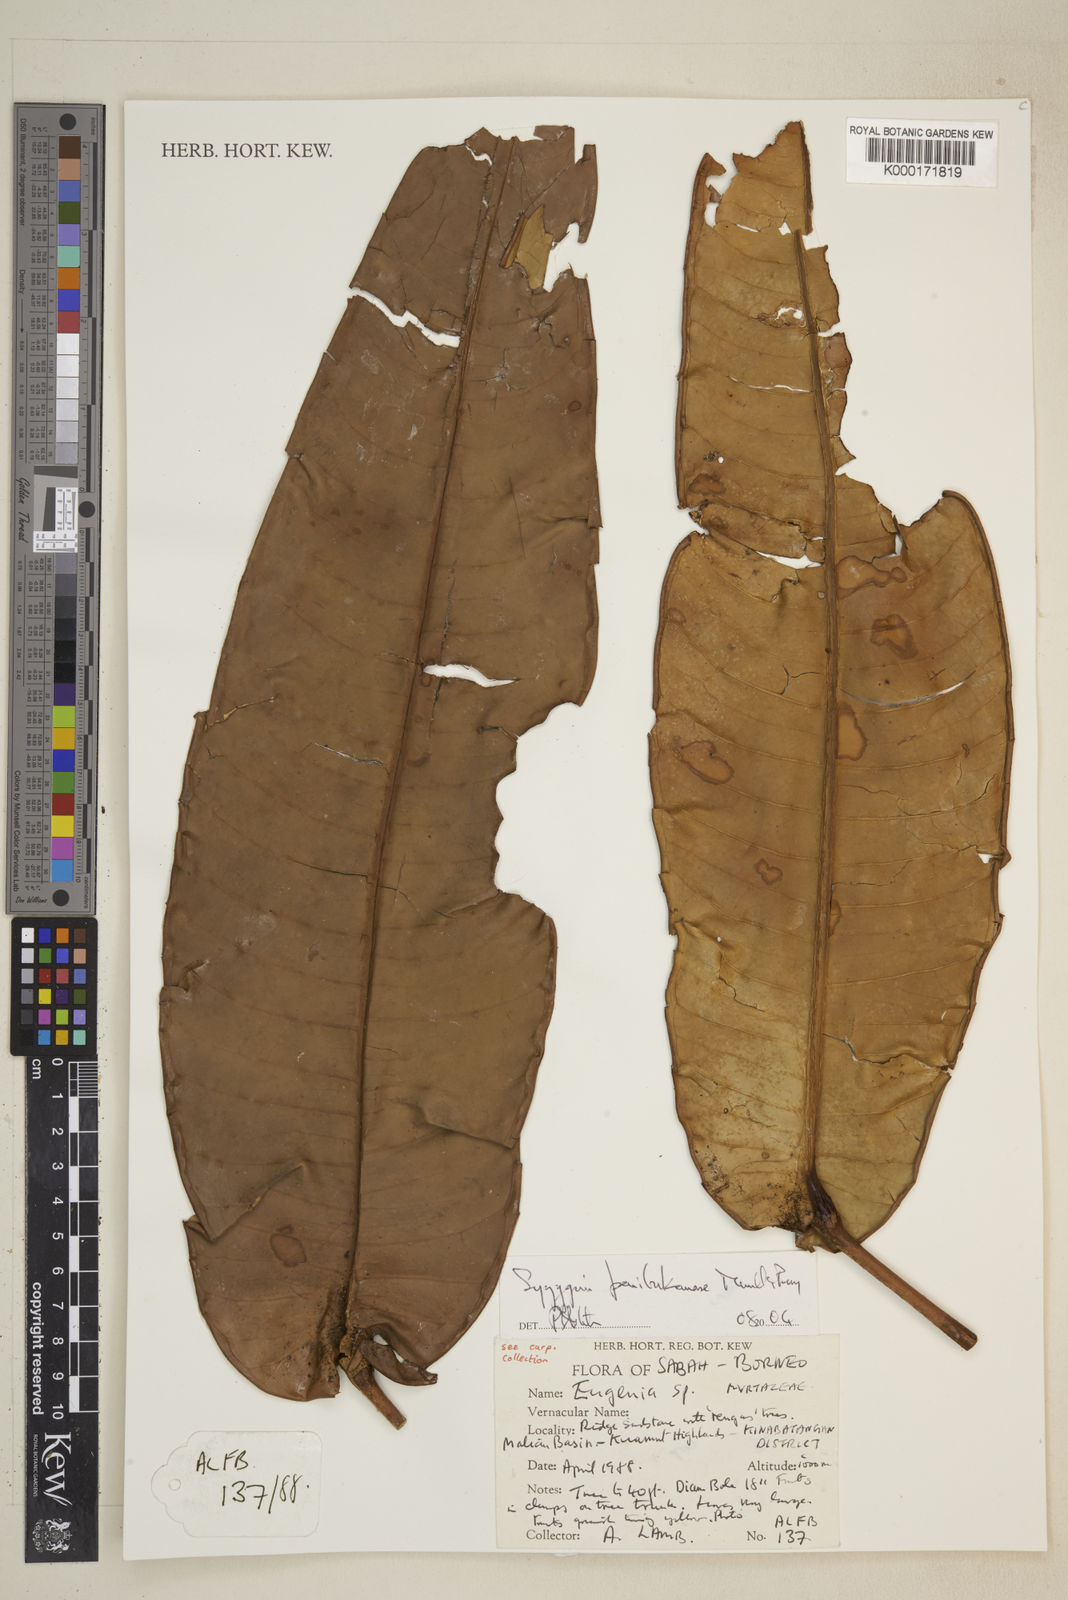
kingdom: Plantae
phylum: Tracheophyta
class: Magnoliopsida
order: Myrtales
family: Myrtaceae
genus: Syzygium
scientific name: Syzygium penibukanense
